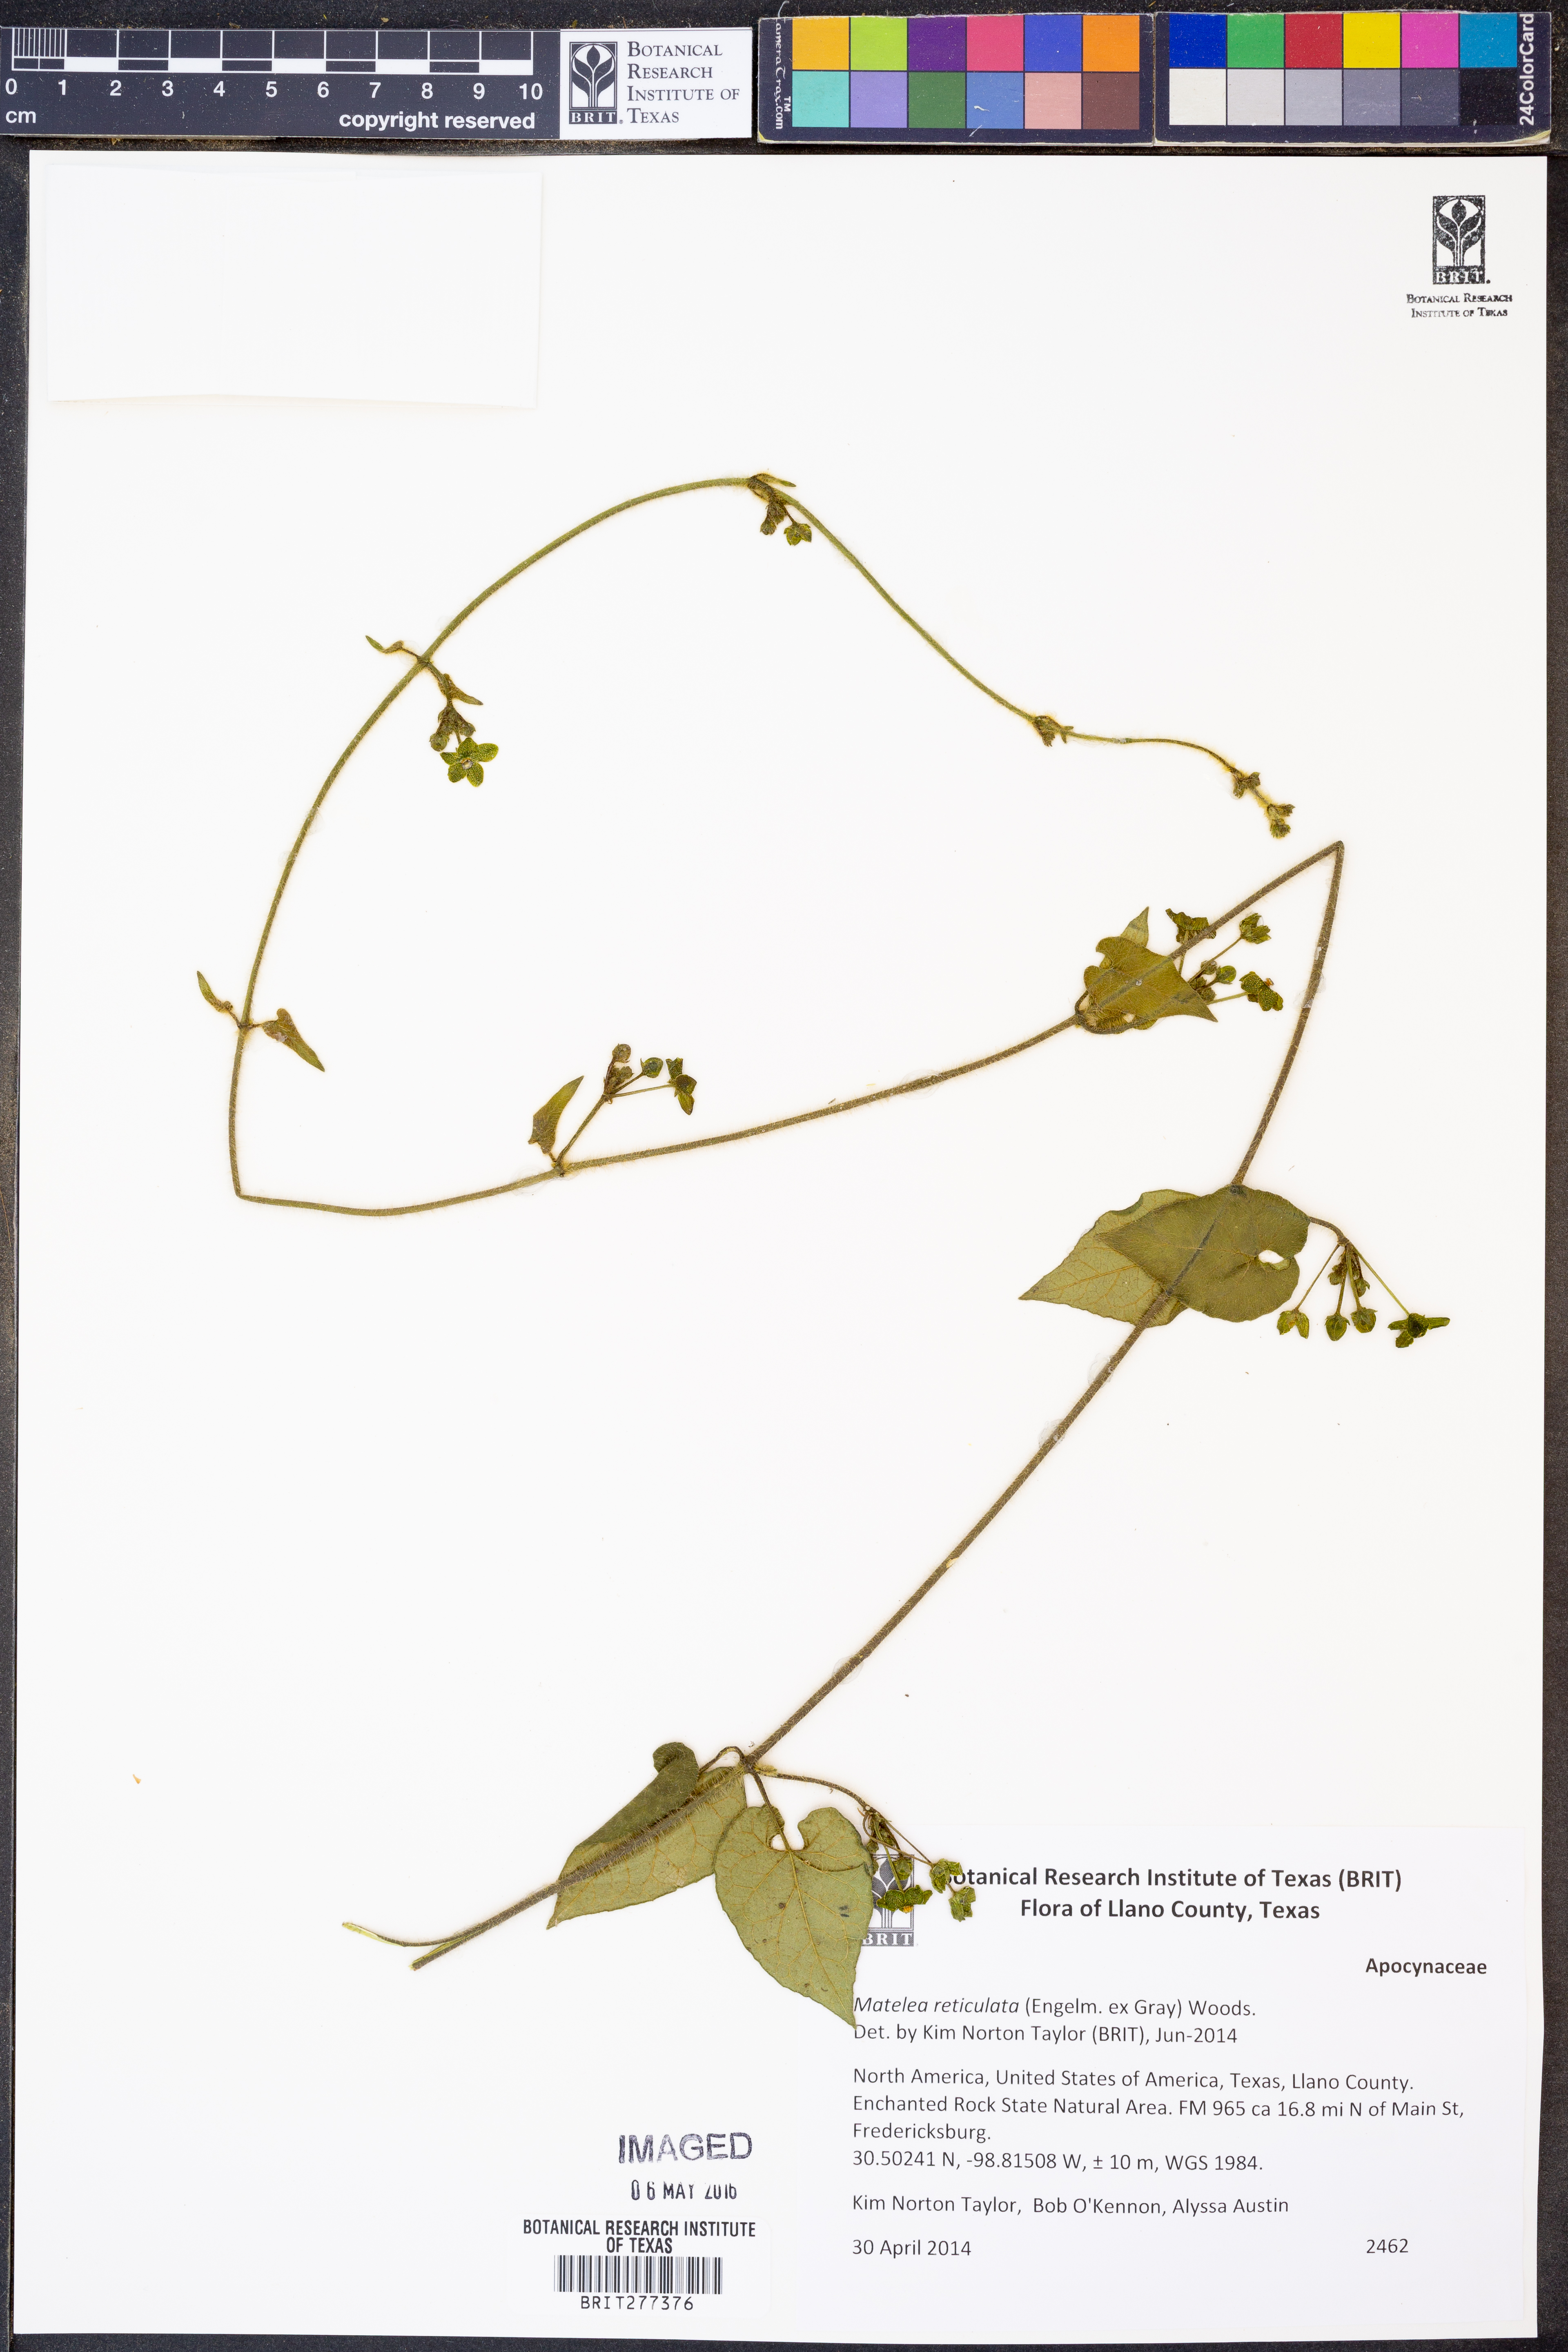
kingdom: Plantae
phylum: Tracheophyta
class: Magnoliopsida
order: Gentianales
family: Apocynaceae
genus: Dictyanthus
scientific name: Dictyanthus reticulatus
